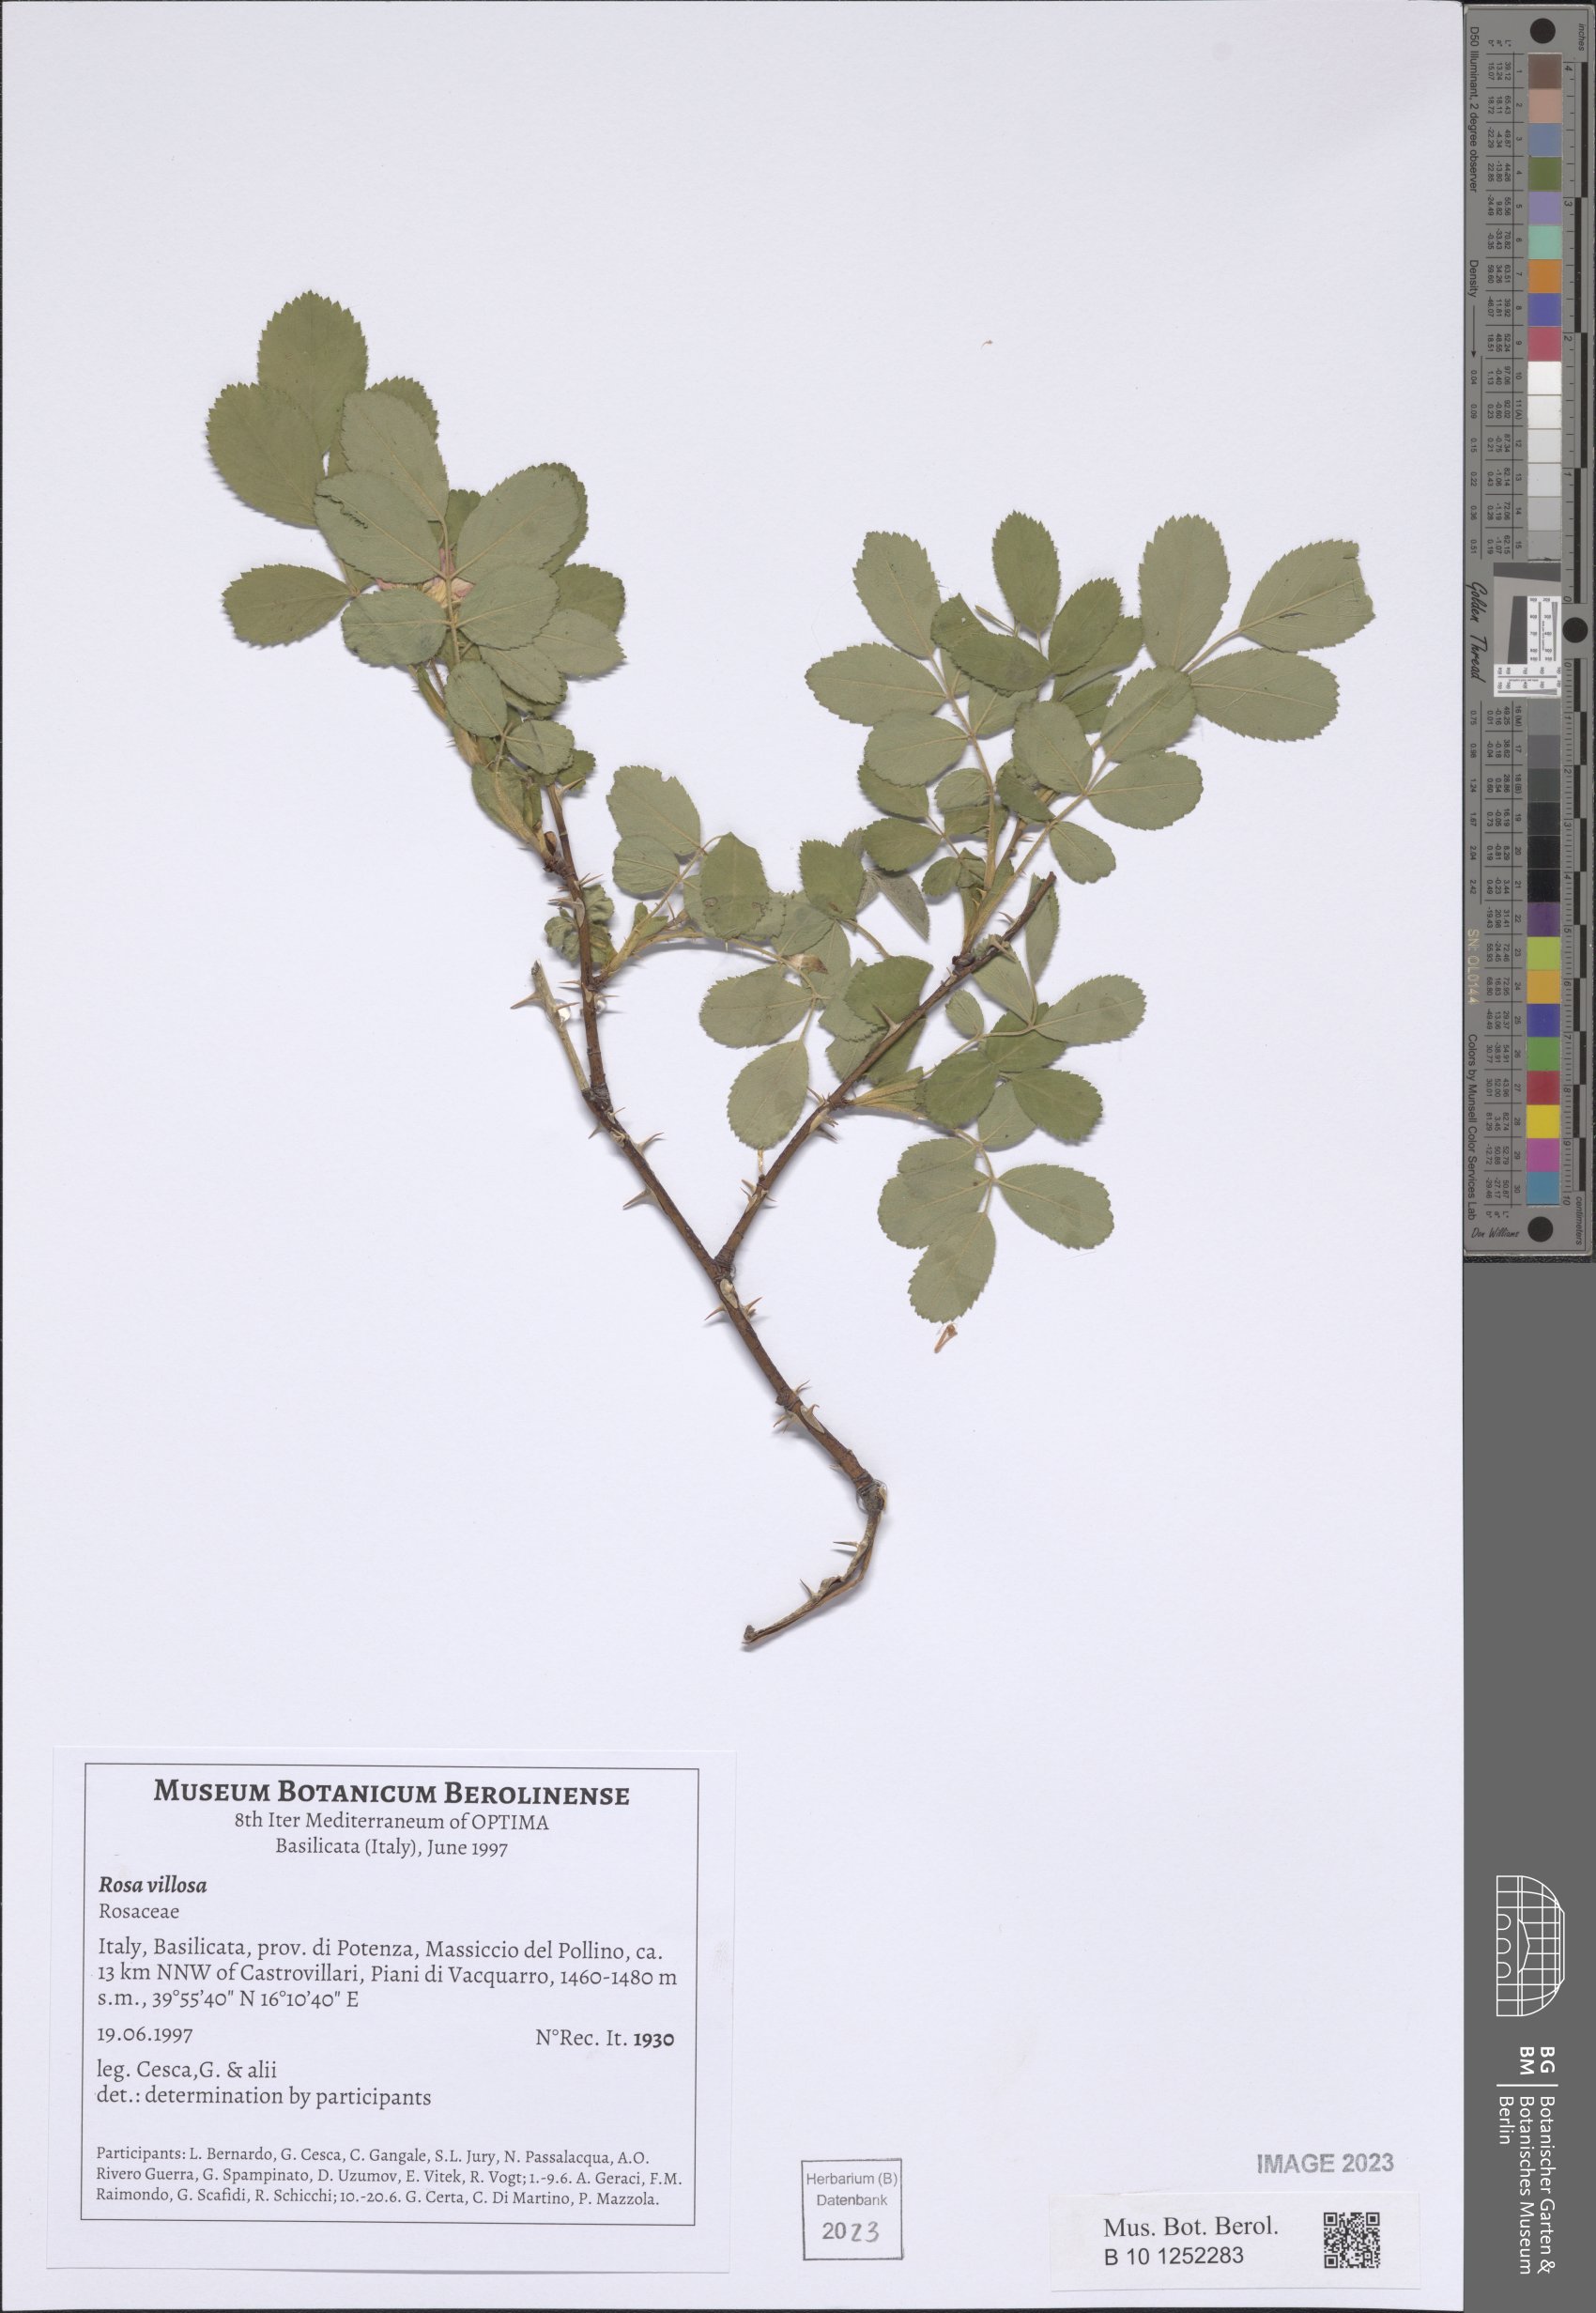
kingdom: Plantae
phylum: Tracheophyta
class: Magnoliopsida
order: Rosales
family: Rosaceae
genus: Rosa
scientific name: Rosa villosa
